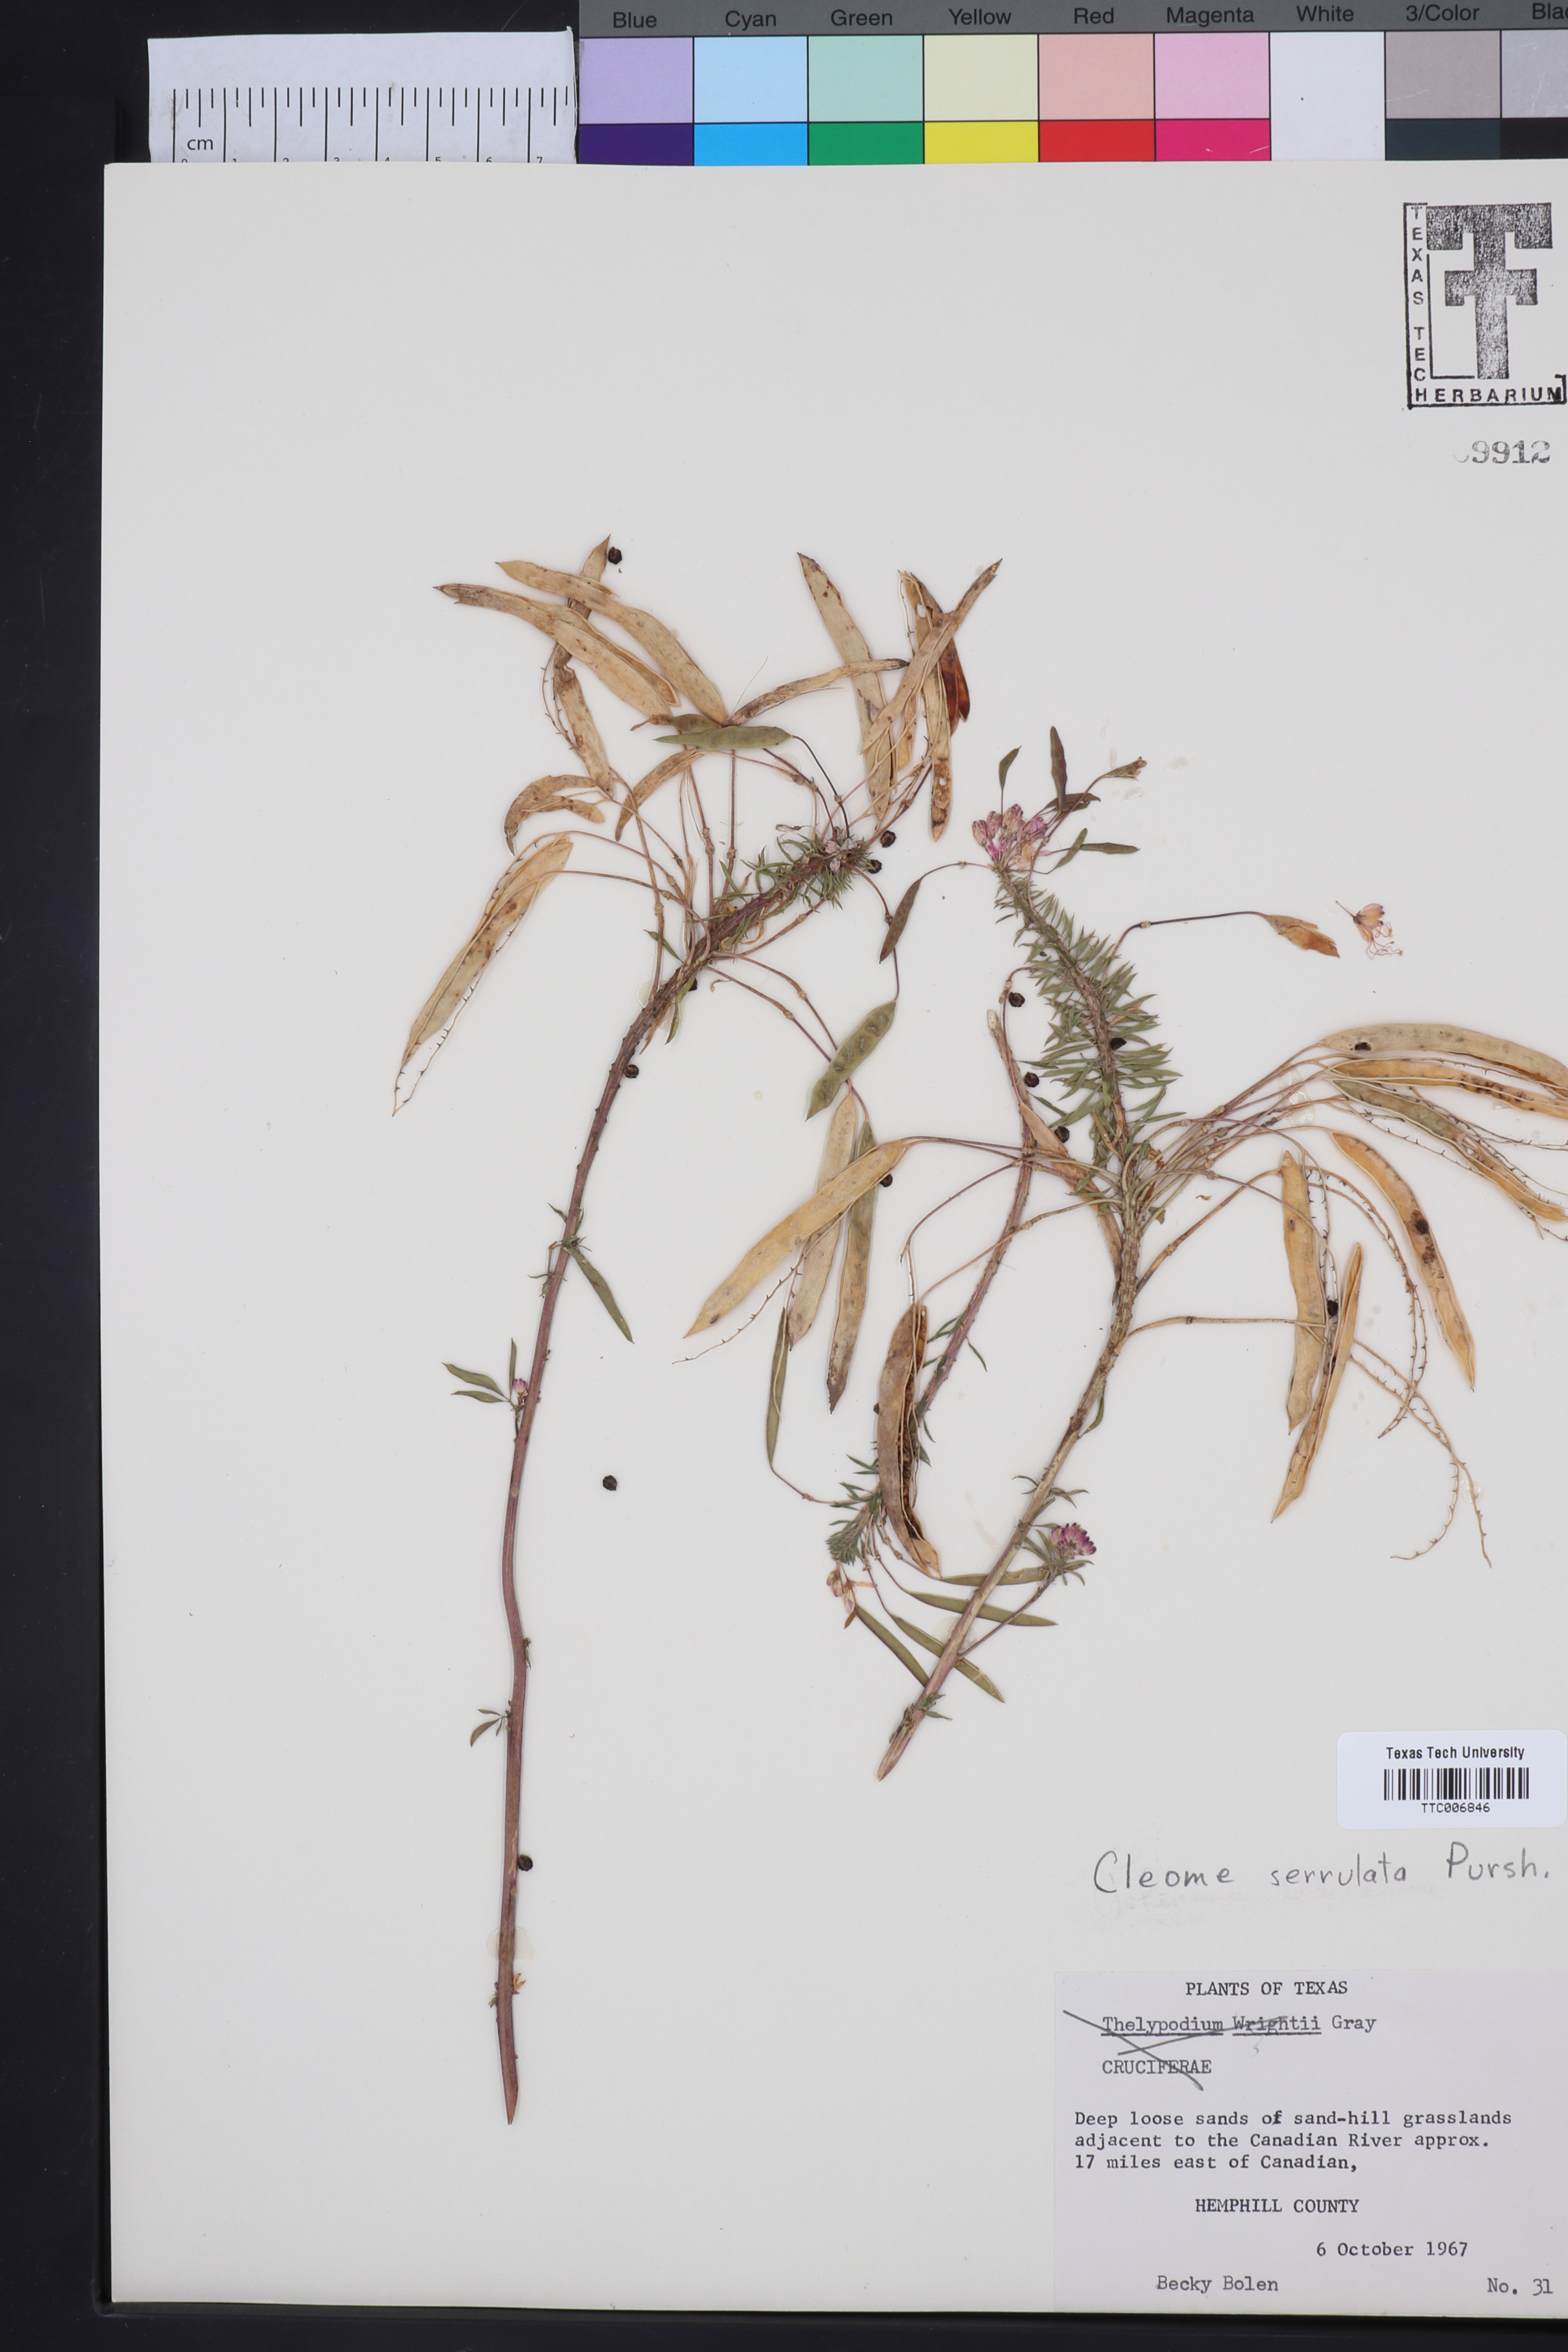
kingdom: Plantae
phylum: Tracheophyta
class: Magnoliopsida
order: Brassicales
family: Cleomaceae
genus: Cleomella
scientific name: Cleomella serrulata
